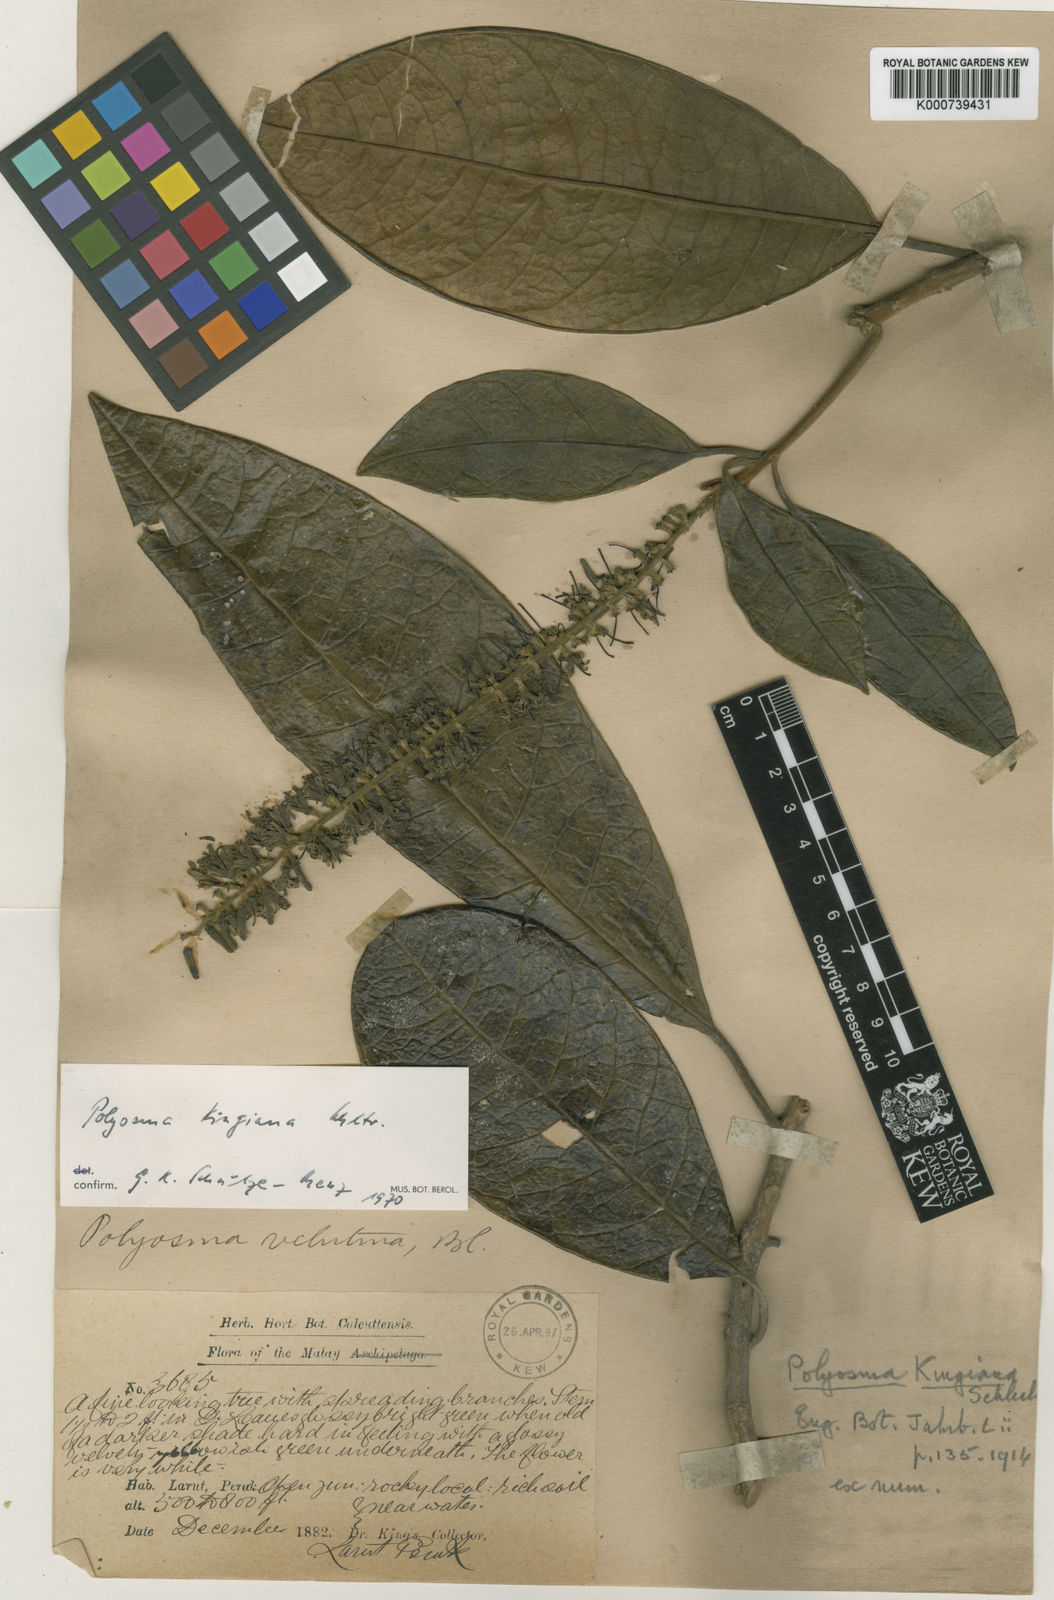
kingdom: Plantae
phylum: Tracheophyta
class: Magnoliopsida
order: Escalloniales
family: Escalloniaceae
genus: Polyosma
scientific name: Polyosma kingiana
